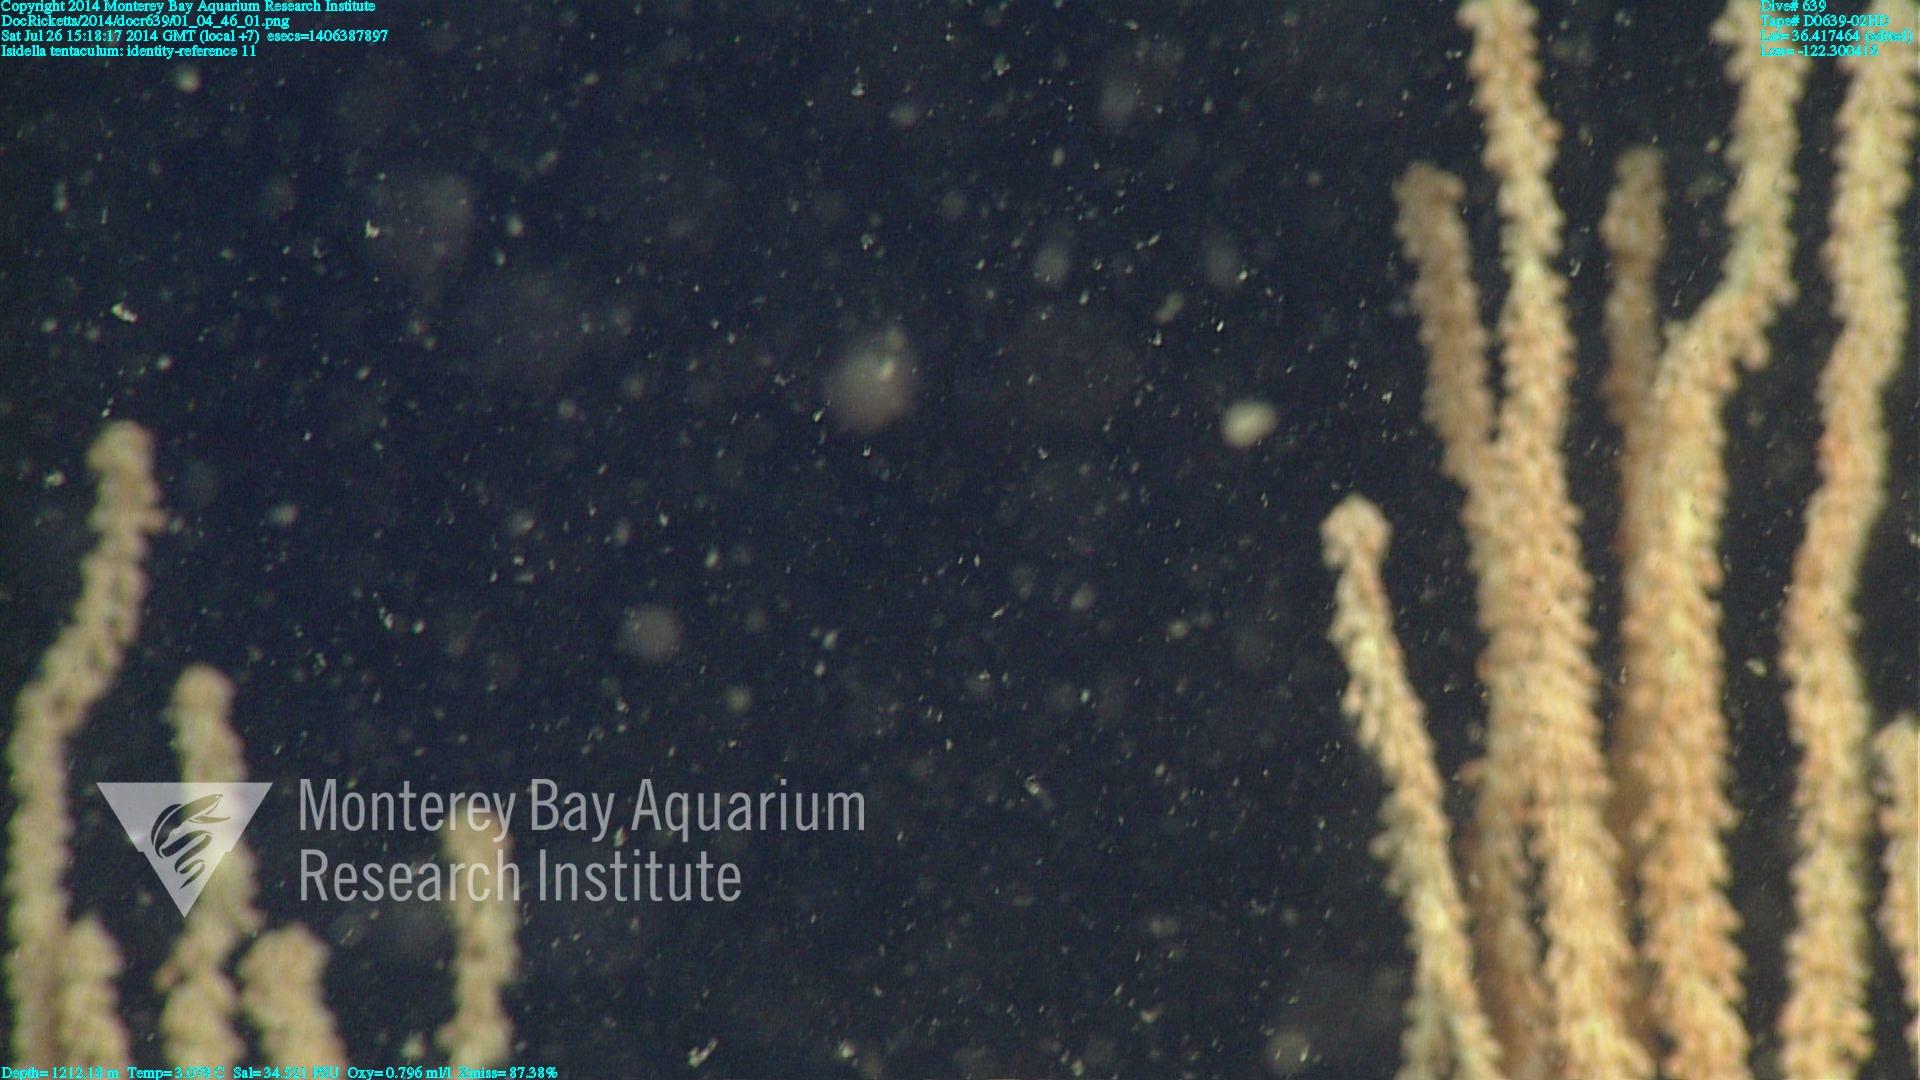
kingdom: Animalia
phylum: Cnidaria
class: Anthozoa
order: Scleralcyonacea
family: Keratoisididae
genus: Isidella
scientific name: Isidella tentaculum
